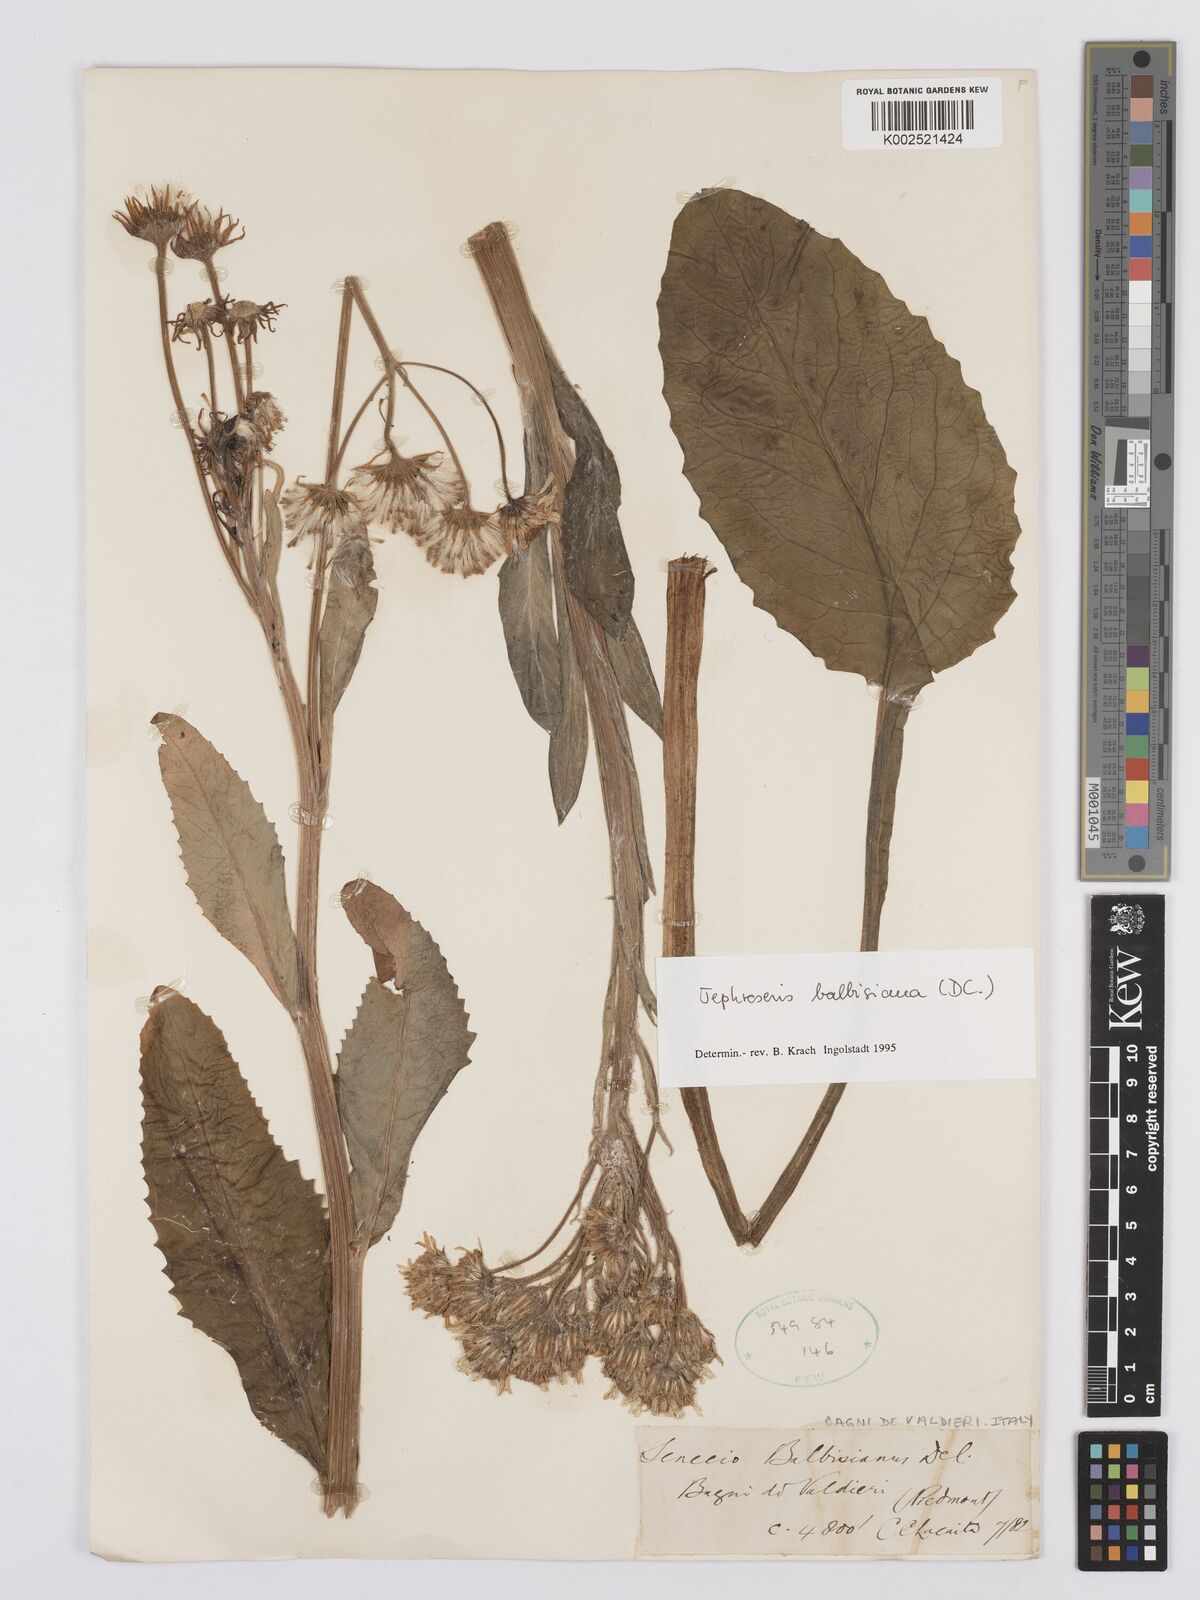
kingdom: Plantae
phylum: Tracheophyta
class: Magnoliopsida
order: Asterales
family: Asteraceae
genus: Tephroseris
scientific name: Tephroseris balbisiana
